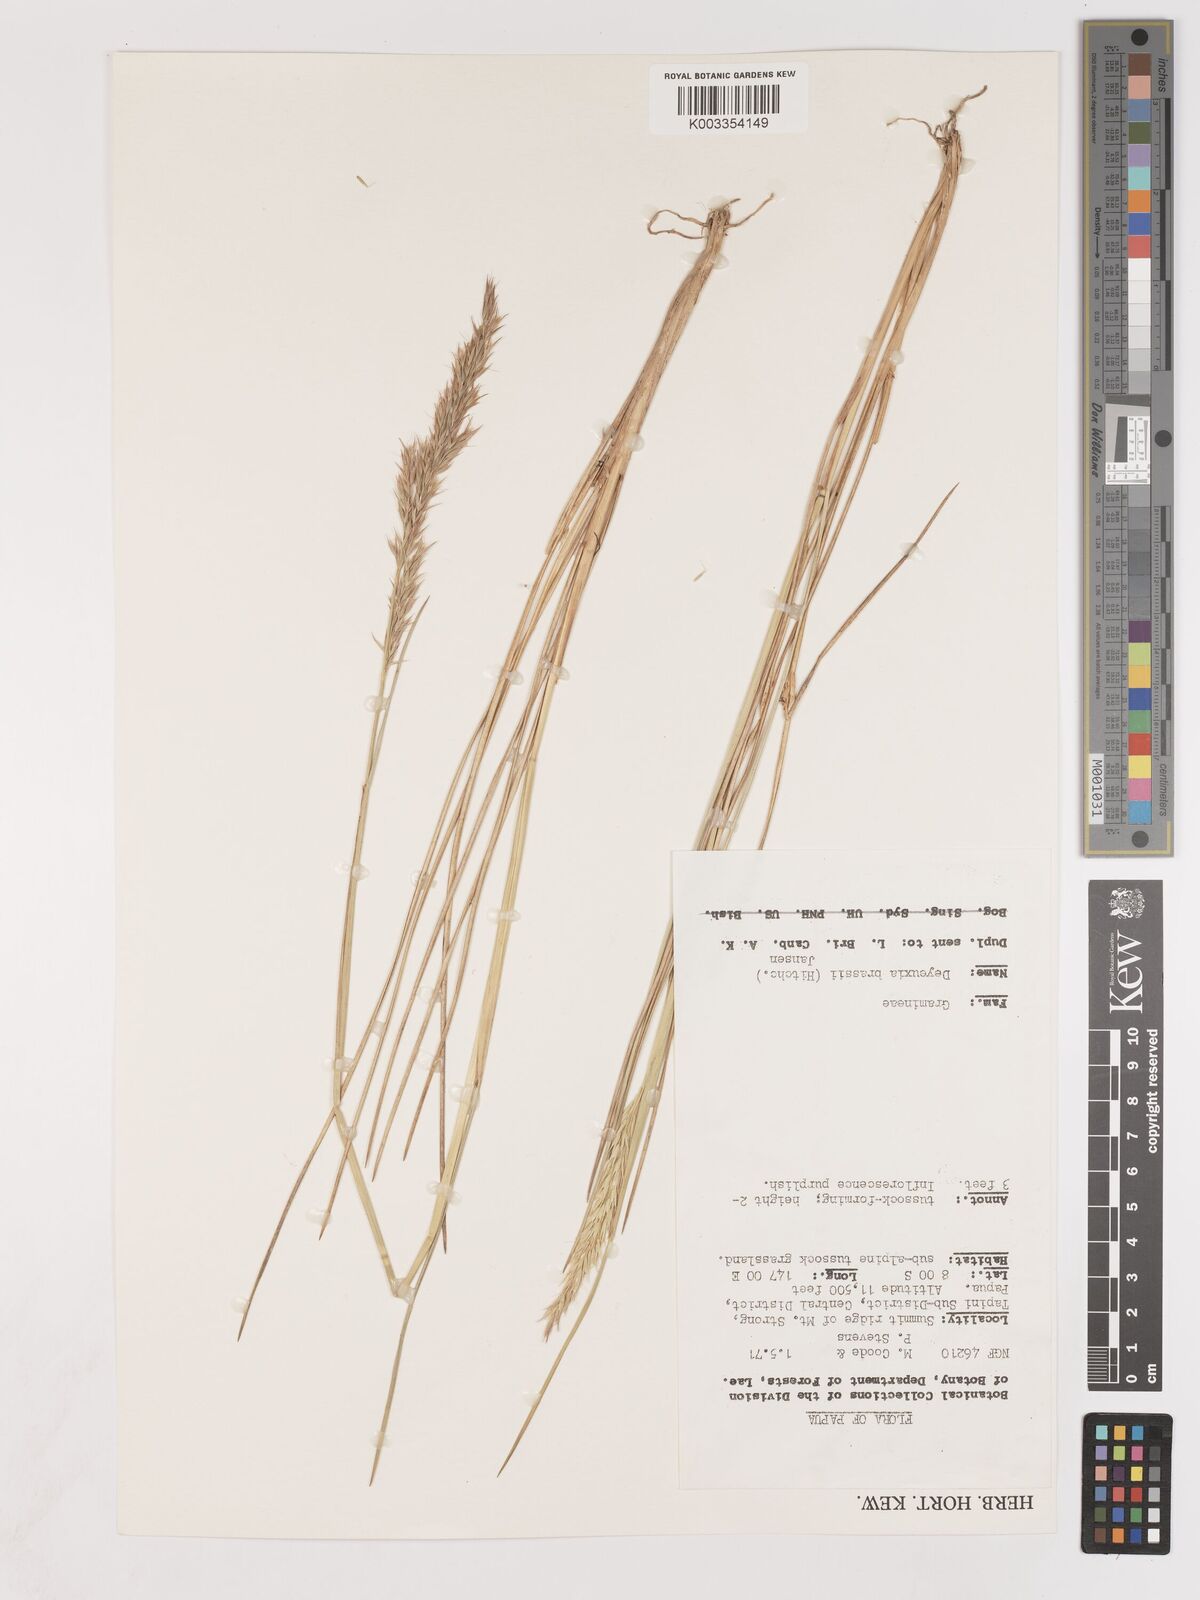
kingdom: Plantae
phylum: Tracheophyta
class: Liliopsida
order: Poales
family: Poaceae
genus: Calamagrostis
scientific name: Calamagrostis brassii
